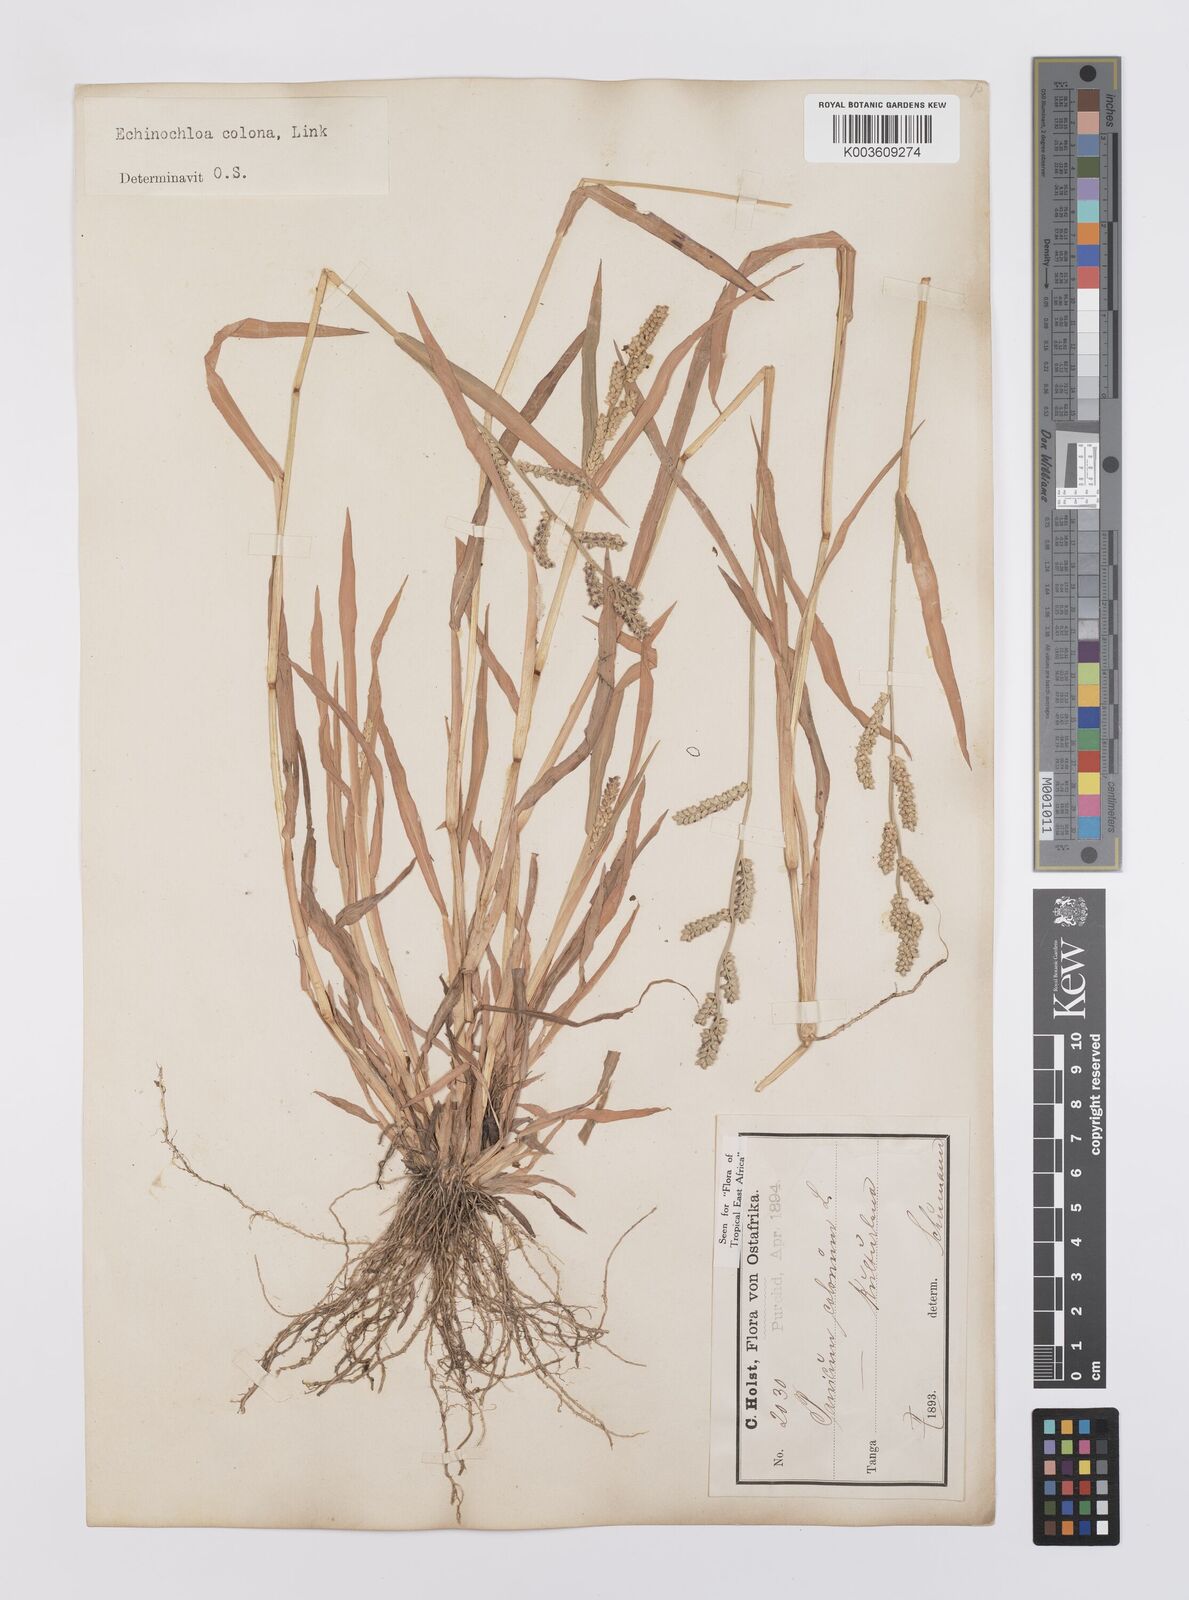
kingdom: Plantae
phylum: Tracheophyta
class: Liliopsida
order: Poales
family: Poaceae
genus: Echinochloa
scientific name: Echinochloa colonum
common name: Jungle rice
